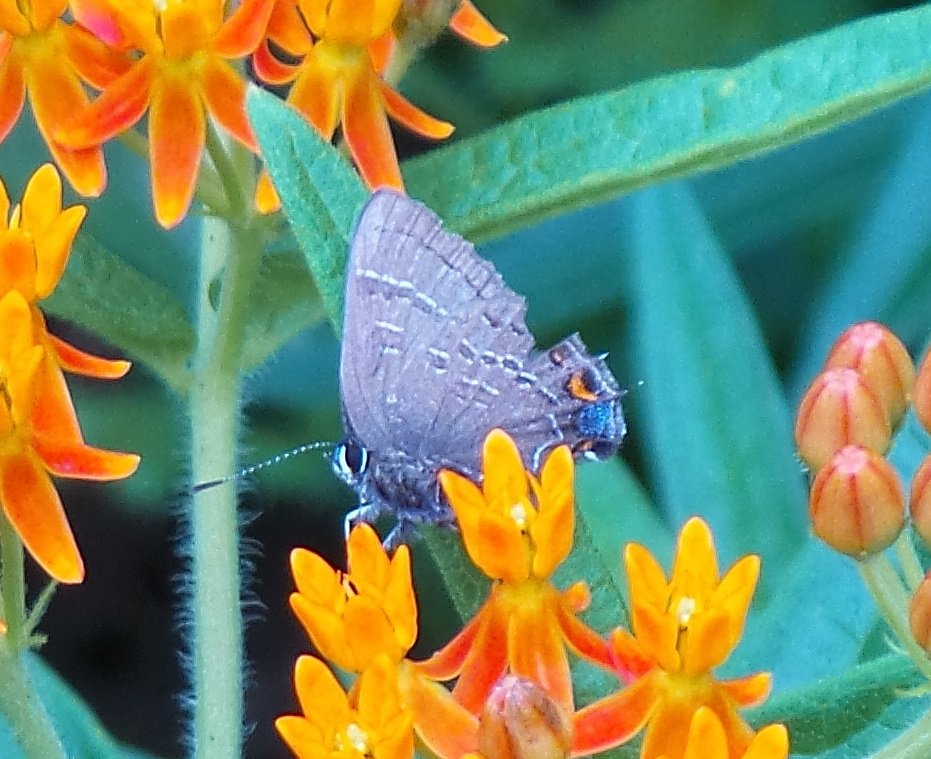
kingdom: Animalia
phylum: Arthropoda
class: Insecta
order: Lepidoptera
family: Lycaenidae
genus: Satyrium
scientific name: Satyrium calanus
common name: Banded Hairstreak
